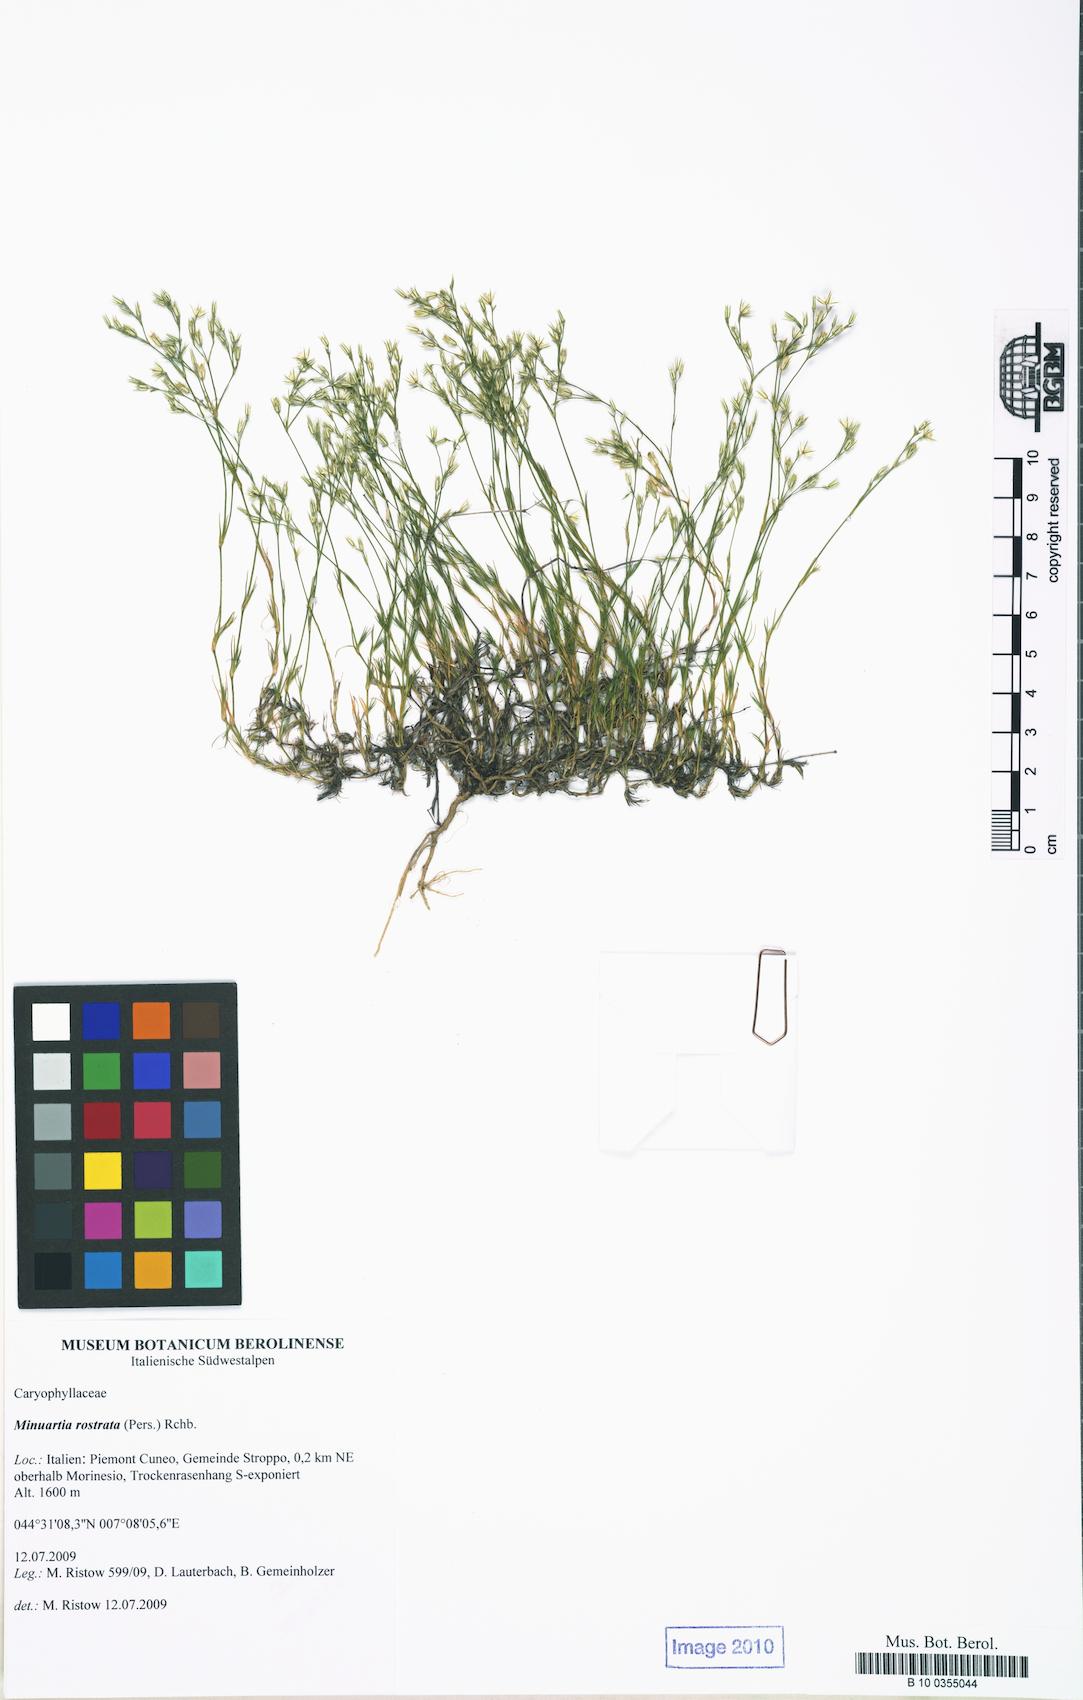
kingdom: Plantae
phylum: Tracheophyta
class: Magnoliopsida
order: Caryophyllales
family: Caryophyllaceae
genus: Minuartia
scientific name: Minuartia rostrata
